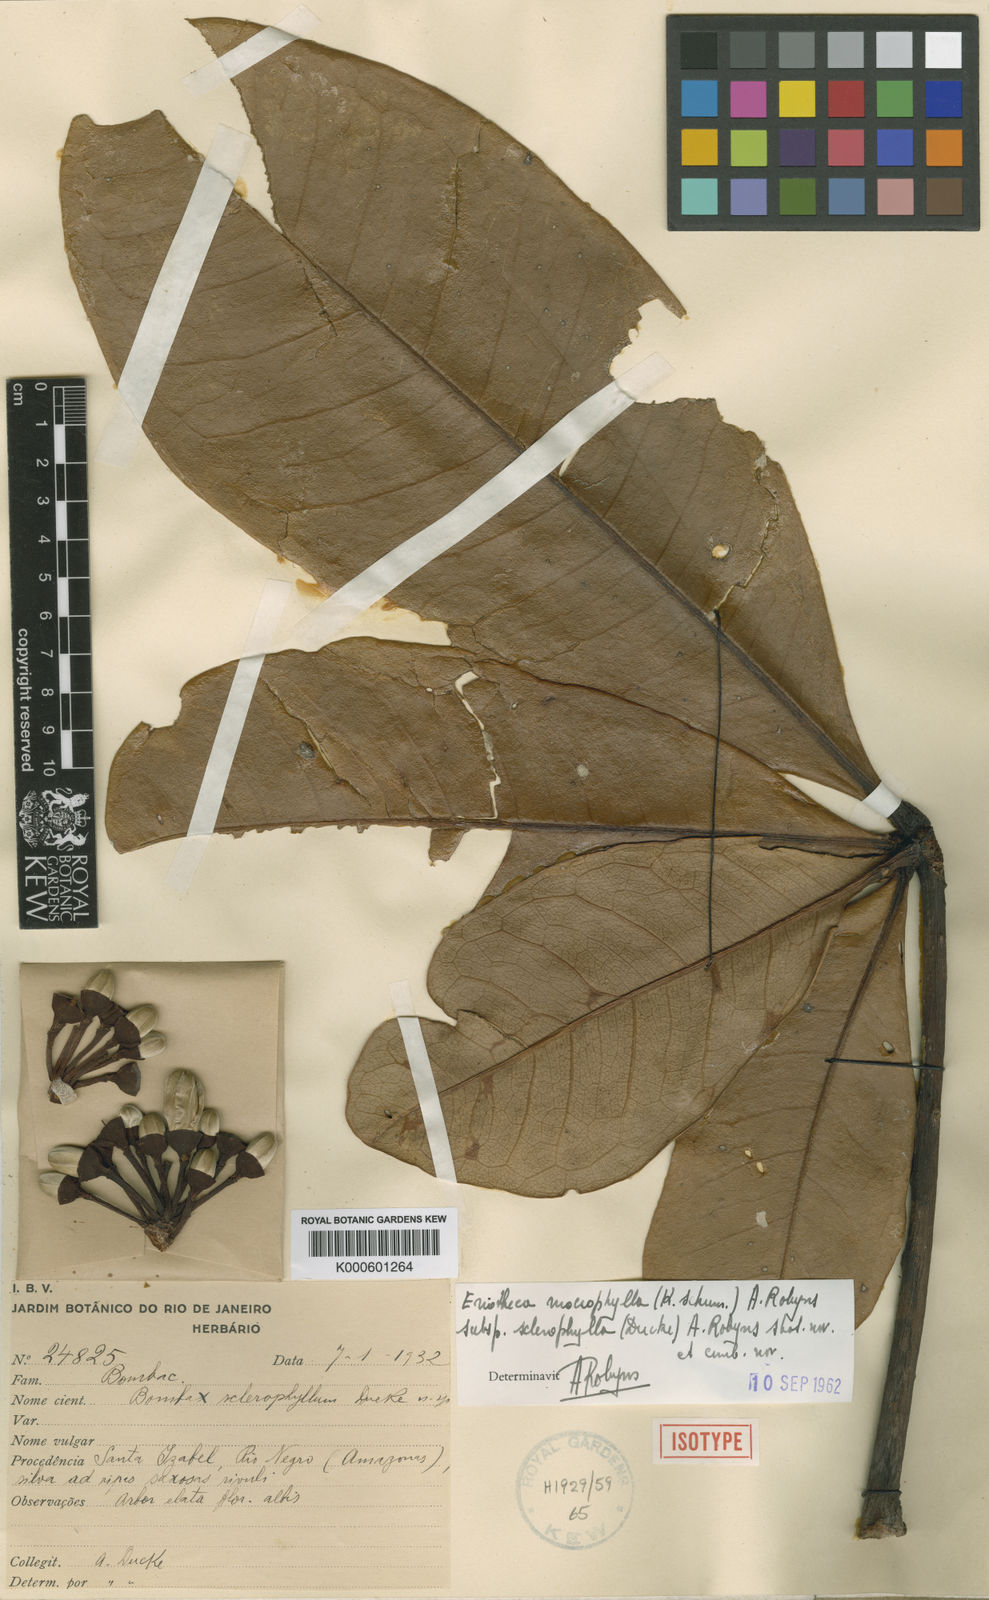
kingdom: Plantae
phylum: Tracheophyta
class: Magnoliopsida
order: Malvales
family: Malvaceae
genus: Eriotheca
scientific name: Eriotheca sclerophylla
